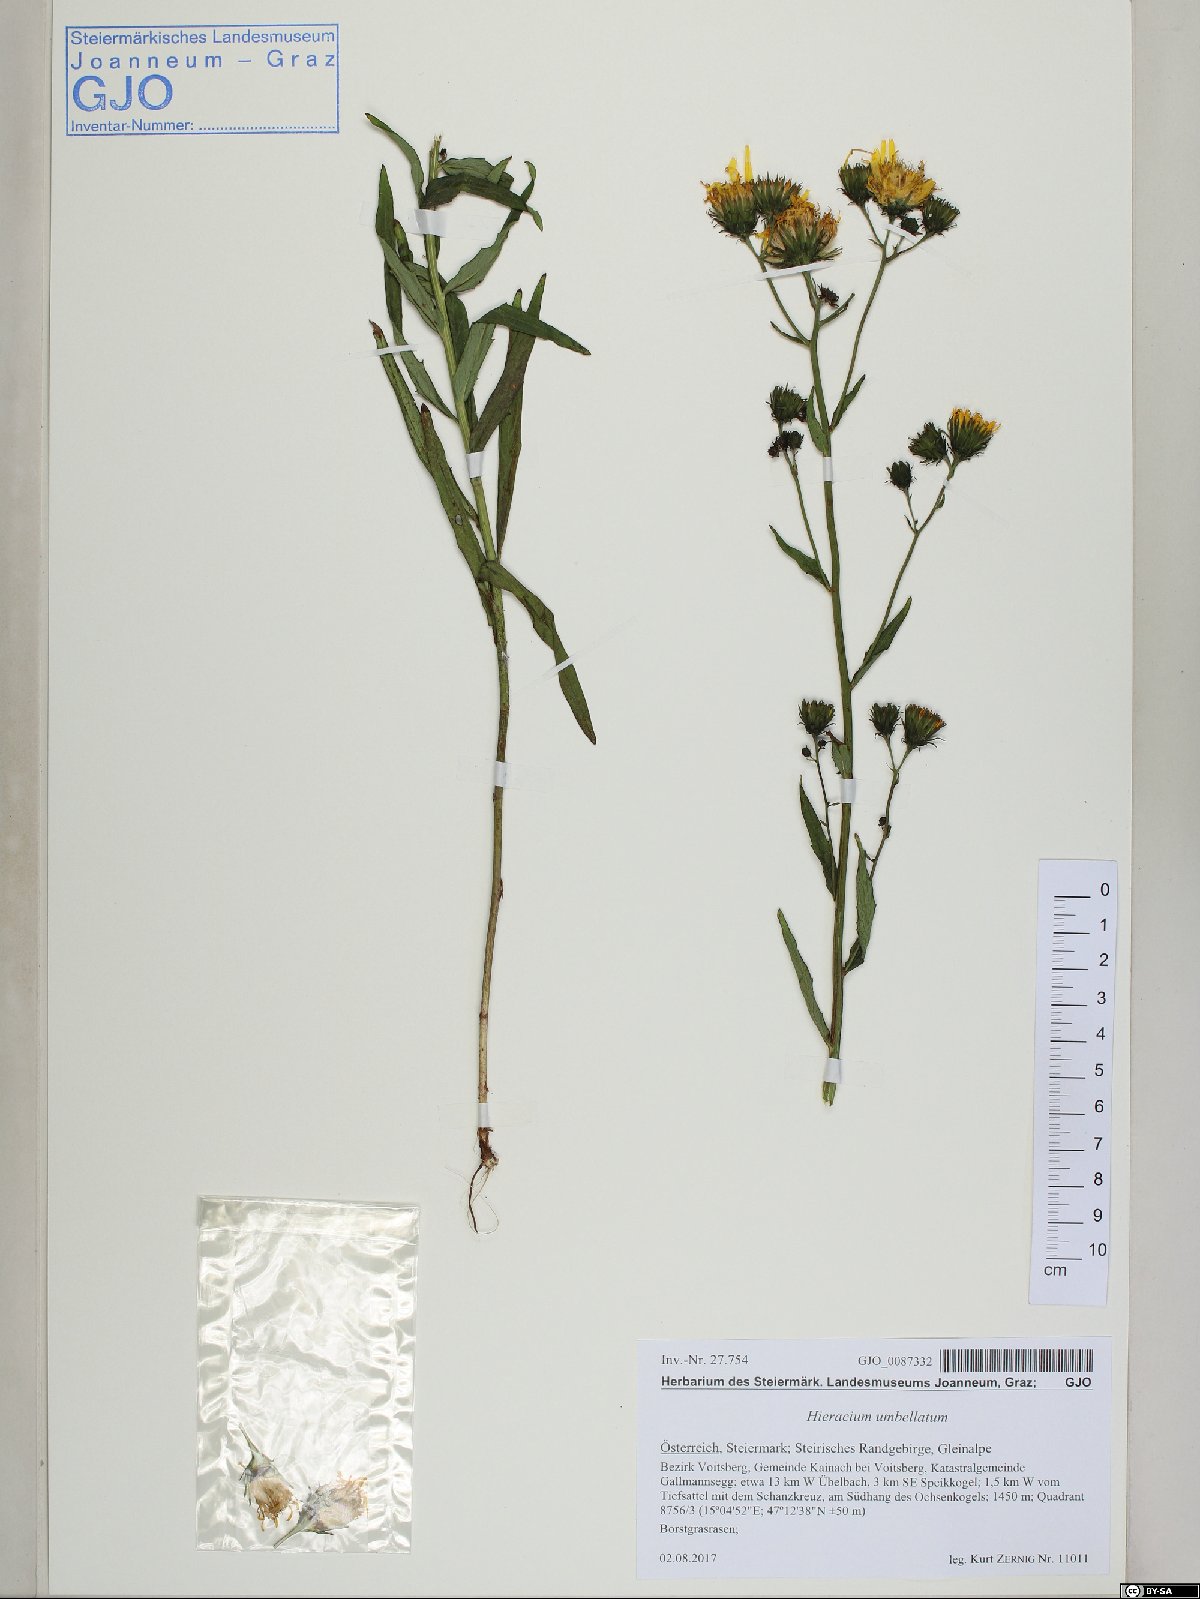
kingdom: Plantae
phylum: Tracheophyta
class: Magnoliopsida
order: Asterales
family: Asteraceae
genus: Hieracium
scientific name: Hieracium umbellatum
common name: Northern hawkweed
